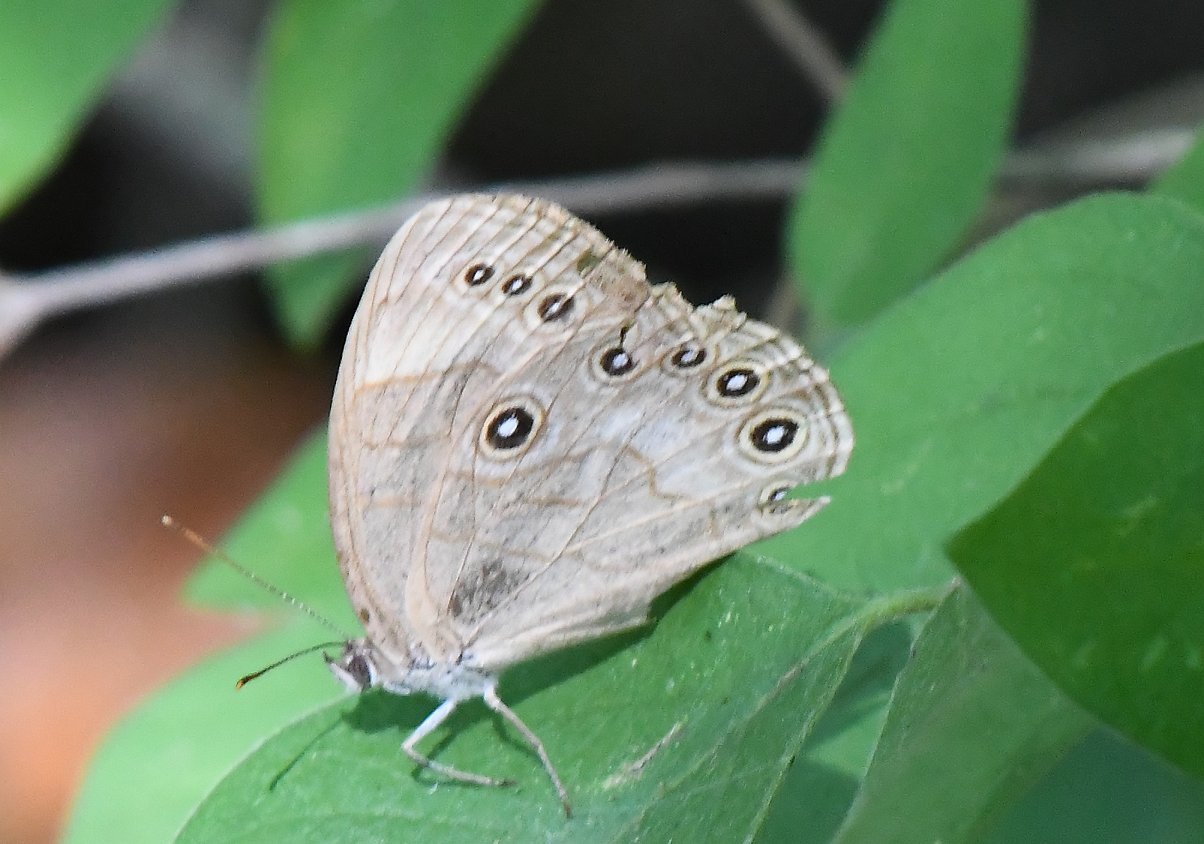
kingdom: Animalia
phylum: Arthropoda
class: Insecta
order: Lepidoptera
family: Nymphalidae
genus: Lethe
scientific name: Lethe eurydice
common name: Appalachian Eyed Brown
